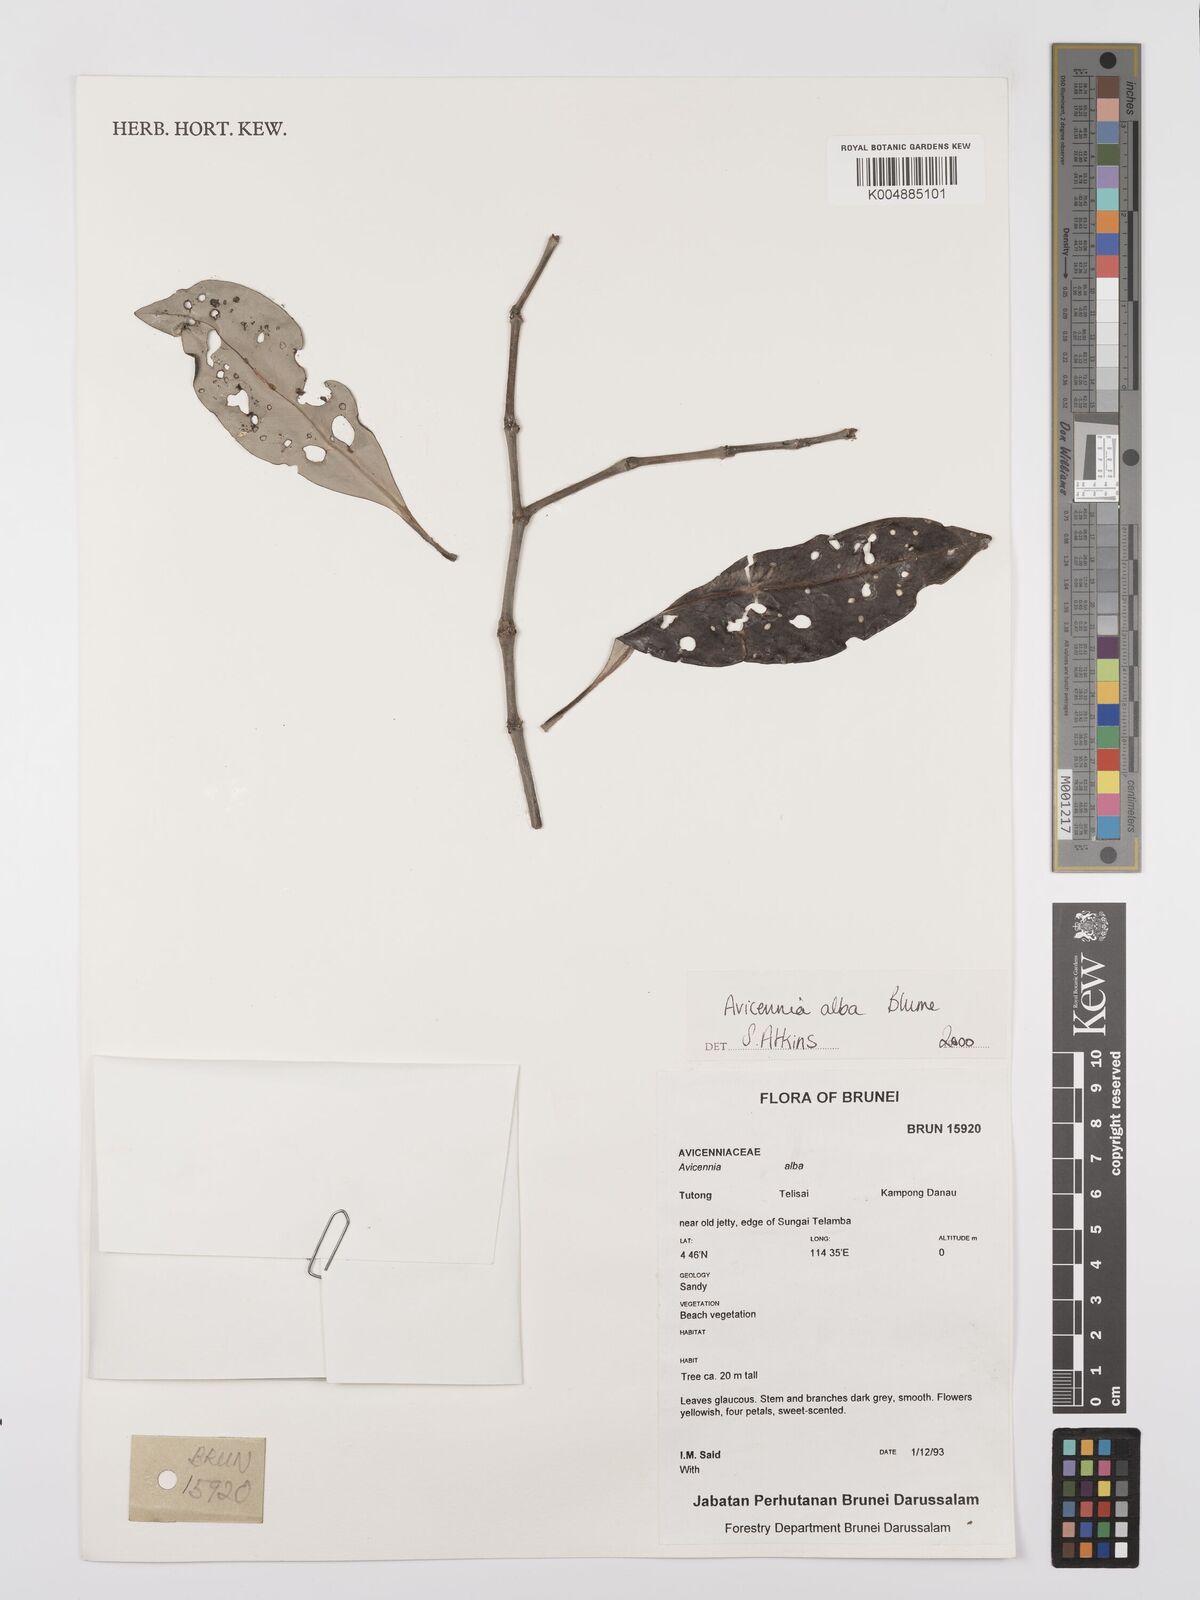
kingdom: Plantae
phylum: Tracheophyta
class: Magnoliopsida
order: Lamiales
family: Acanthaceae
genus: Avicennia
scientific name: Avicennia alba
